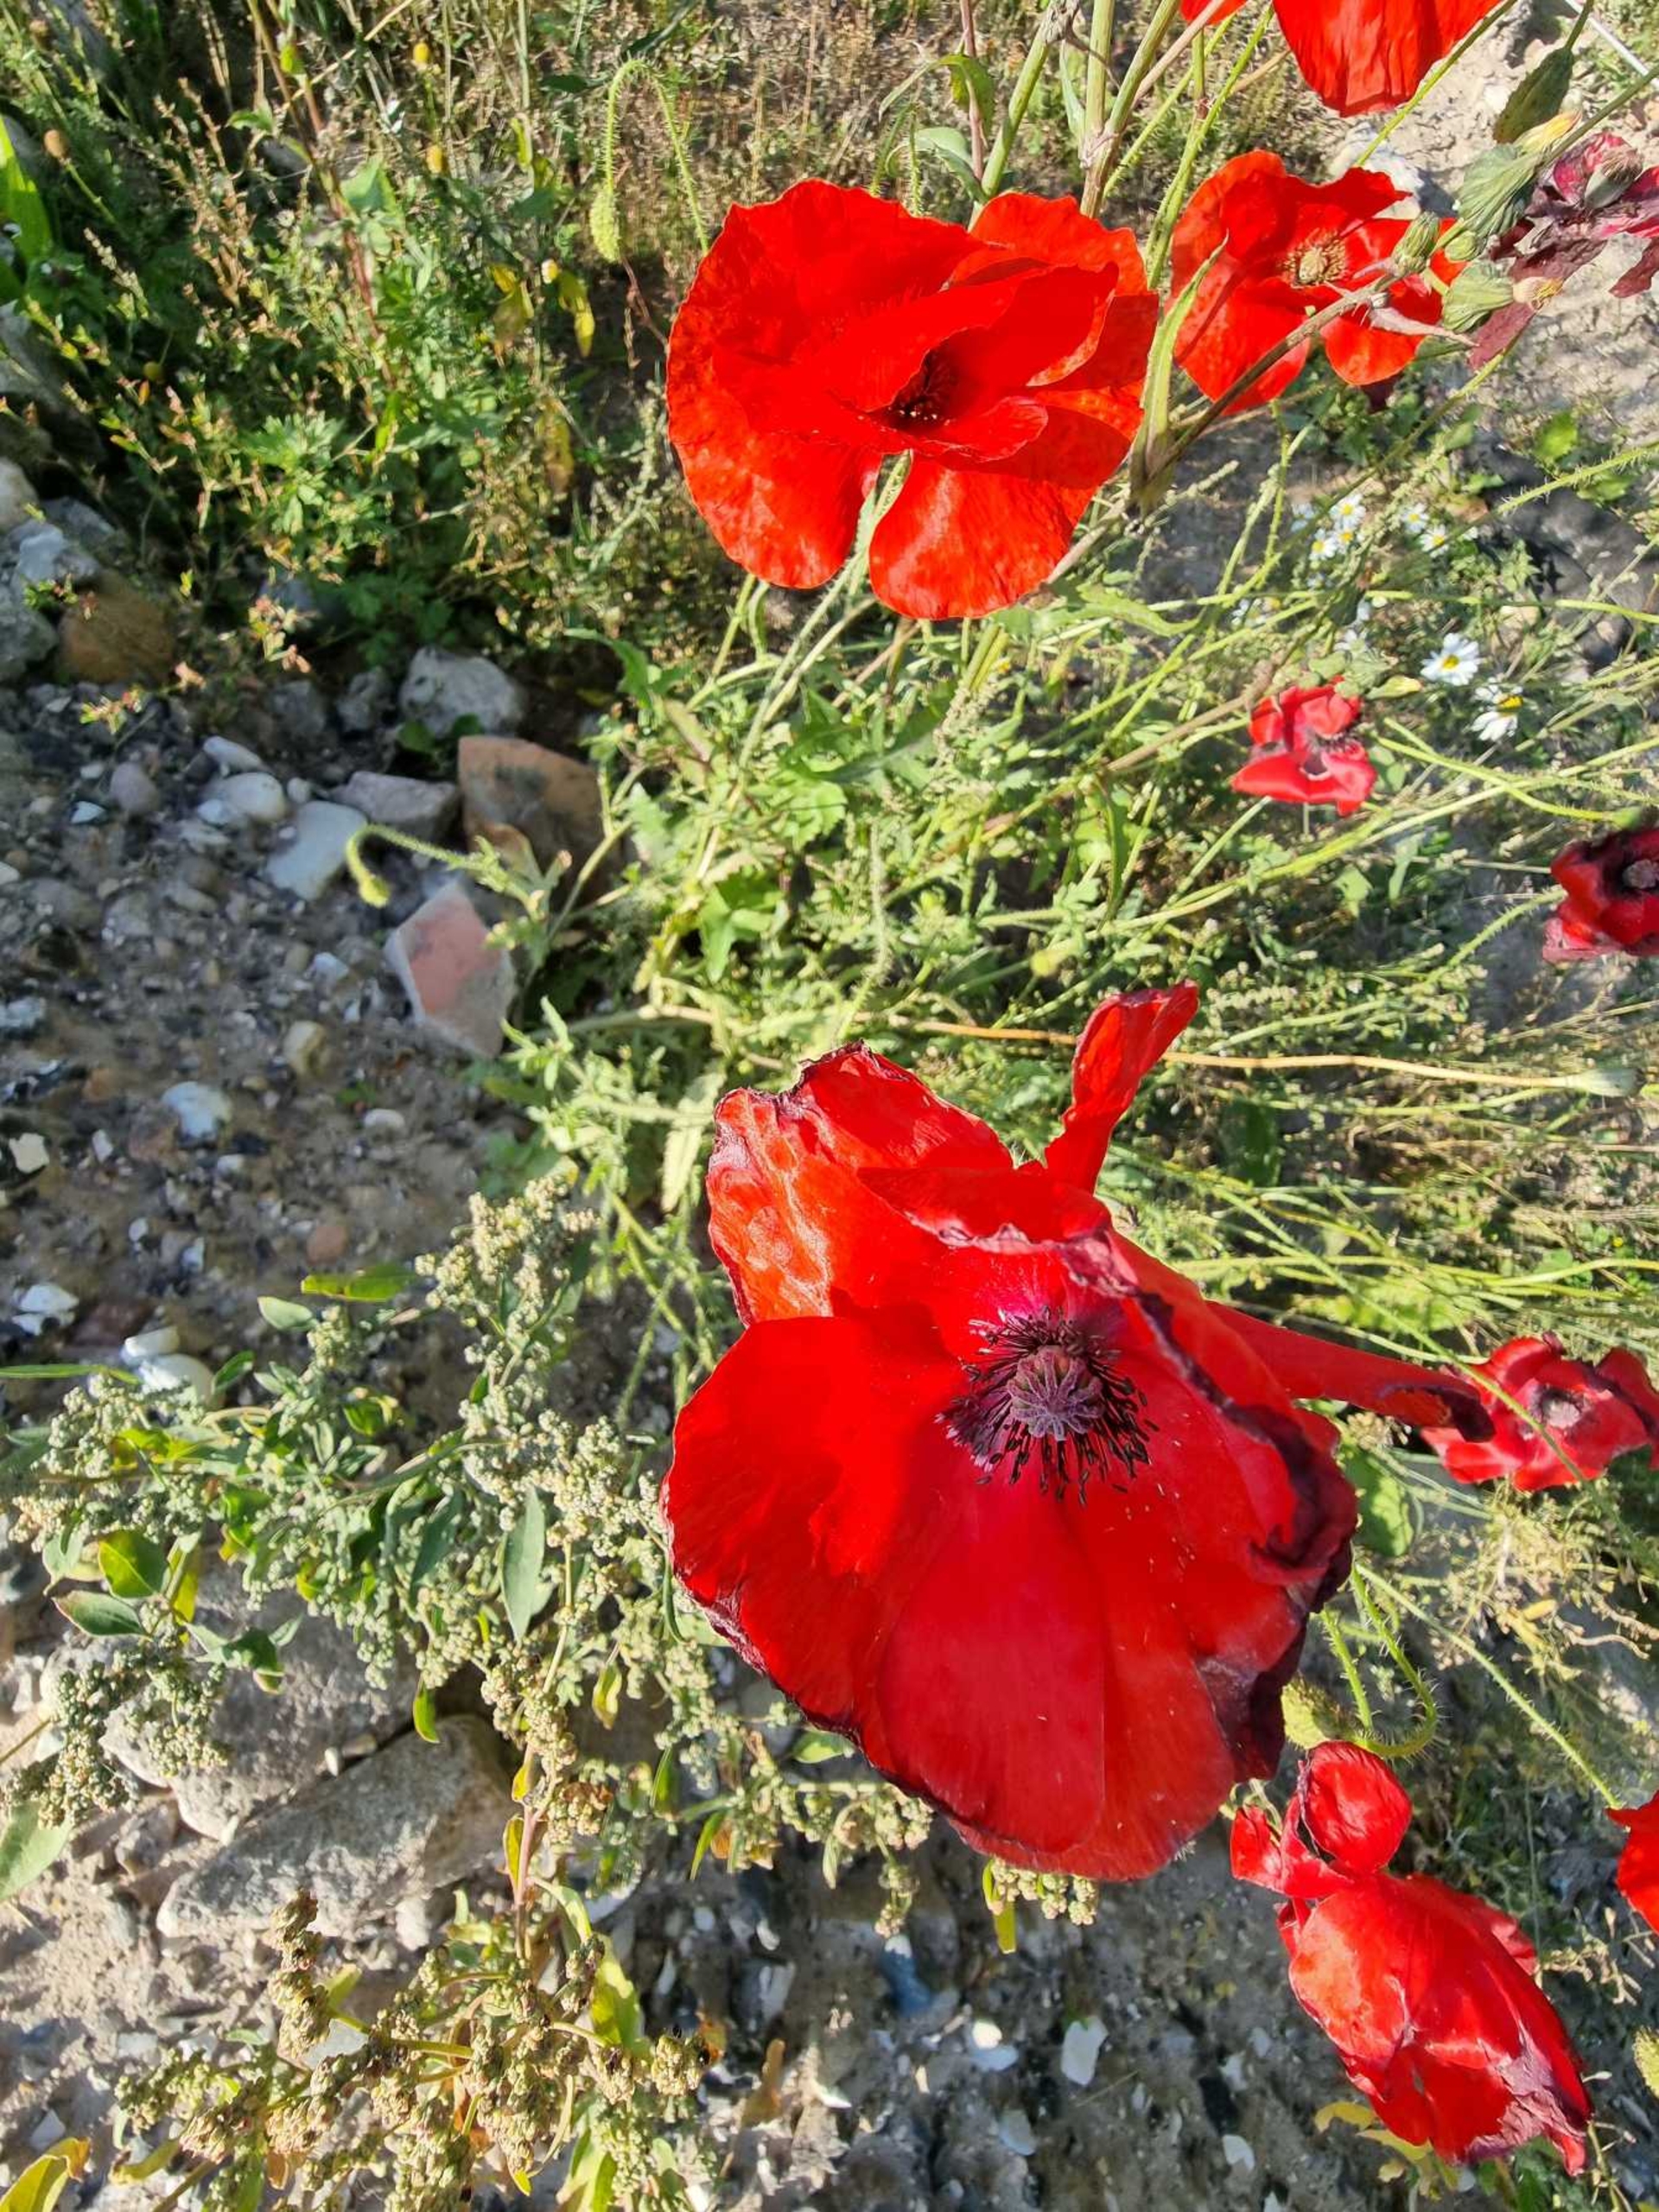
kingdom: Plantae
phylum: Tracheophyta
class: Magnoliopsida
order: Ranunculales
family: Papaveraceae
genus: Papaver
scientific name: Papaver rhoeas
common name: Korn-valmue
